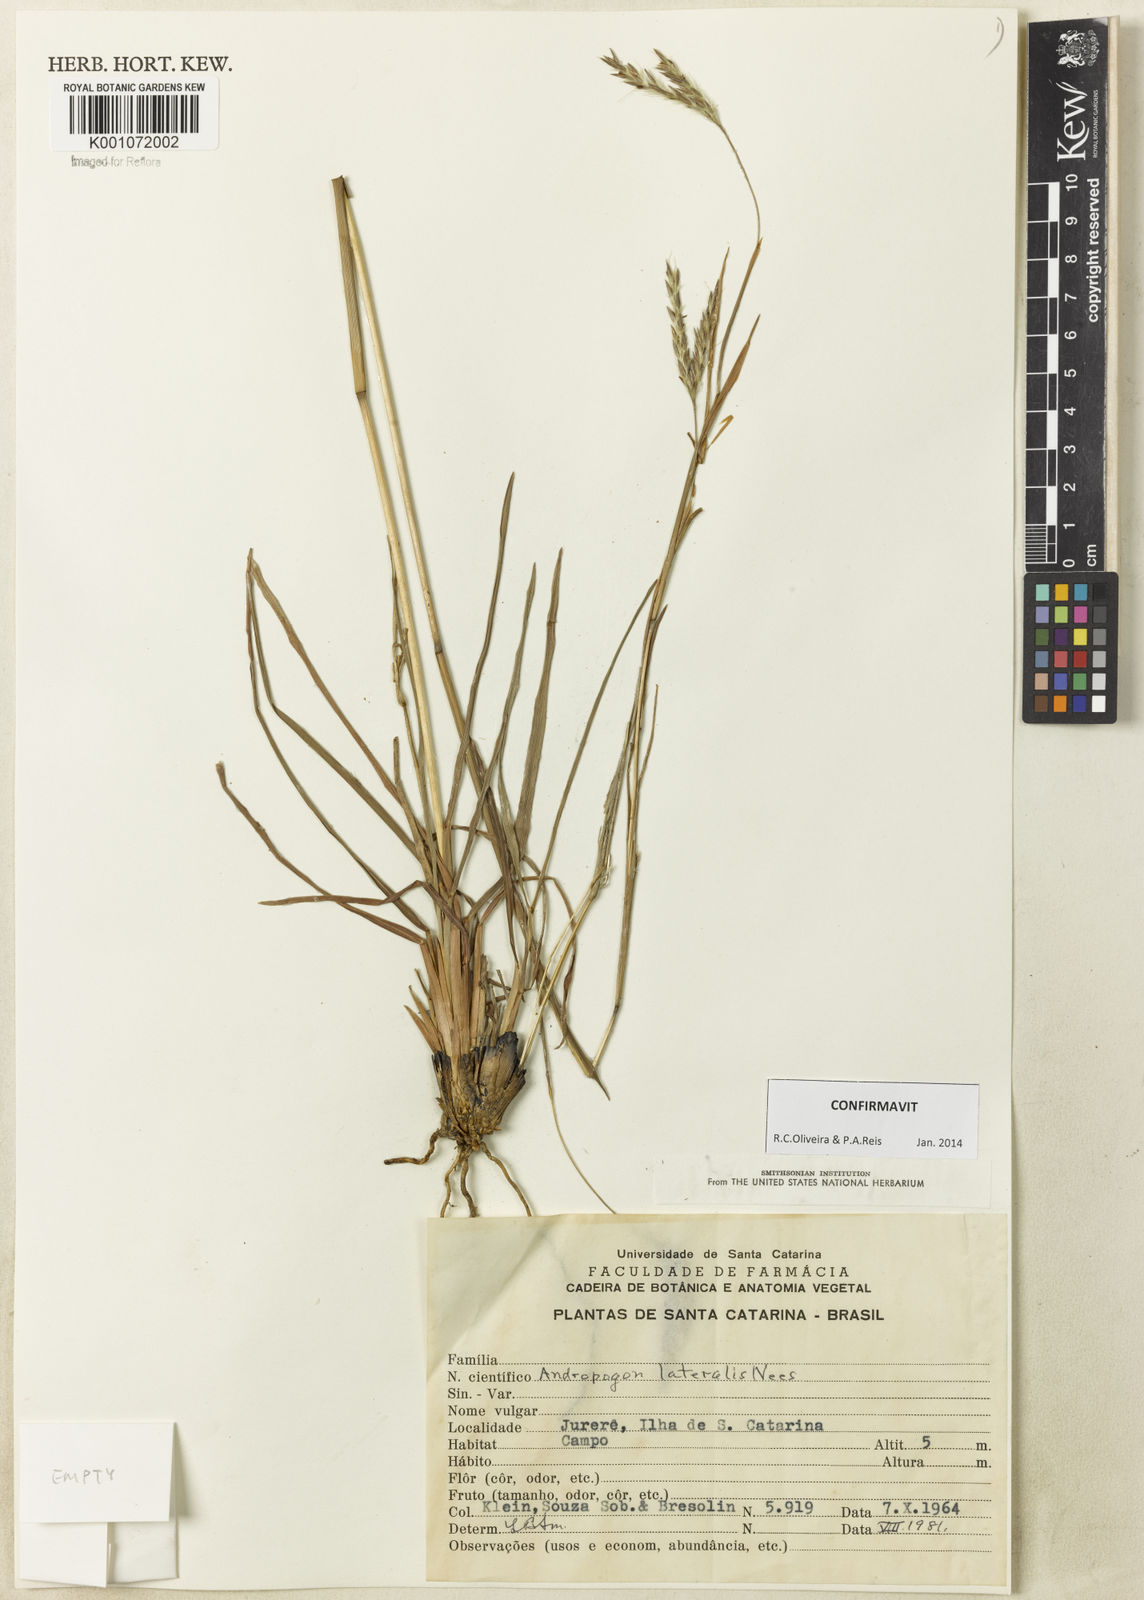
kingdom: Plantae
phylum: Tracheophyta
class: Liliopsida
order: Poales
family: Poaceae
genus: Andropogon
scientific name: Andropogon lateralis
